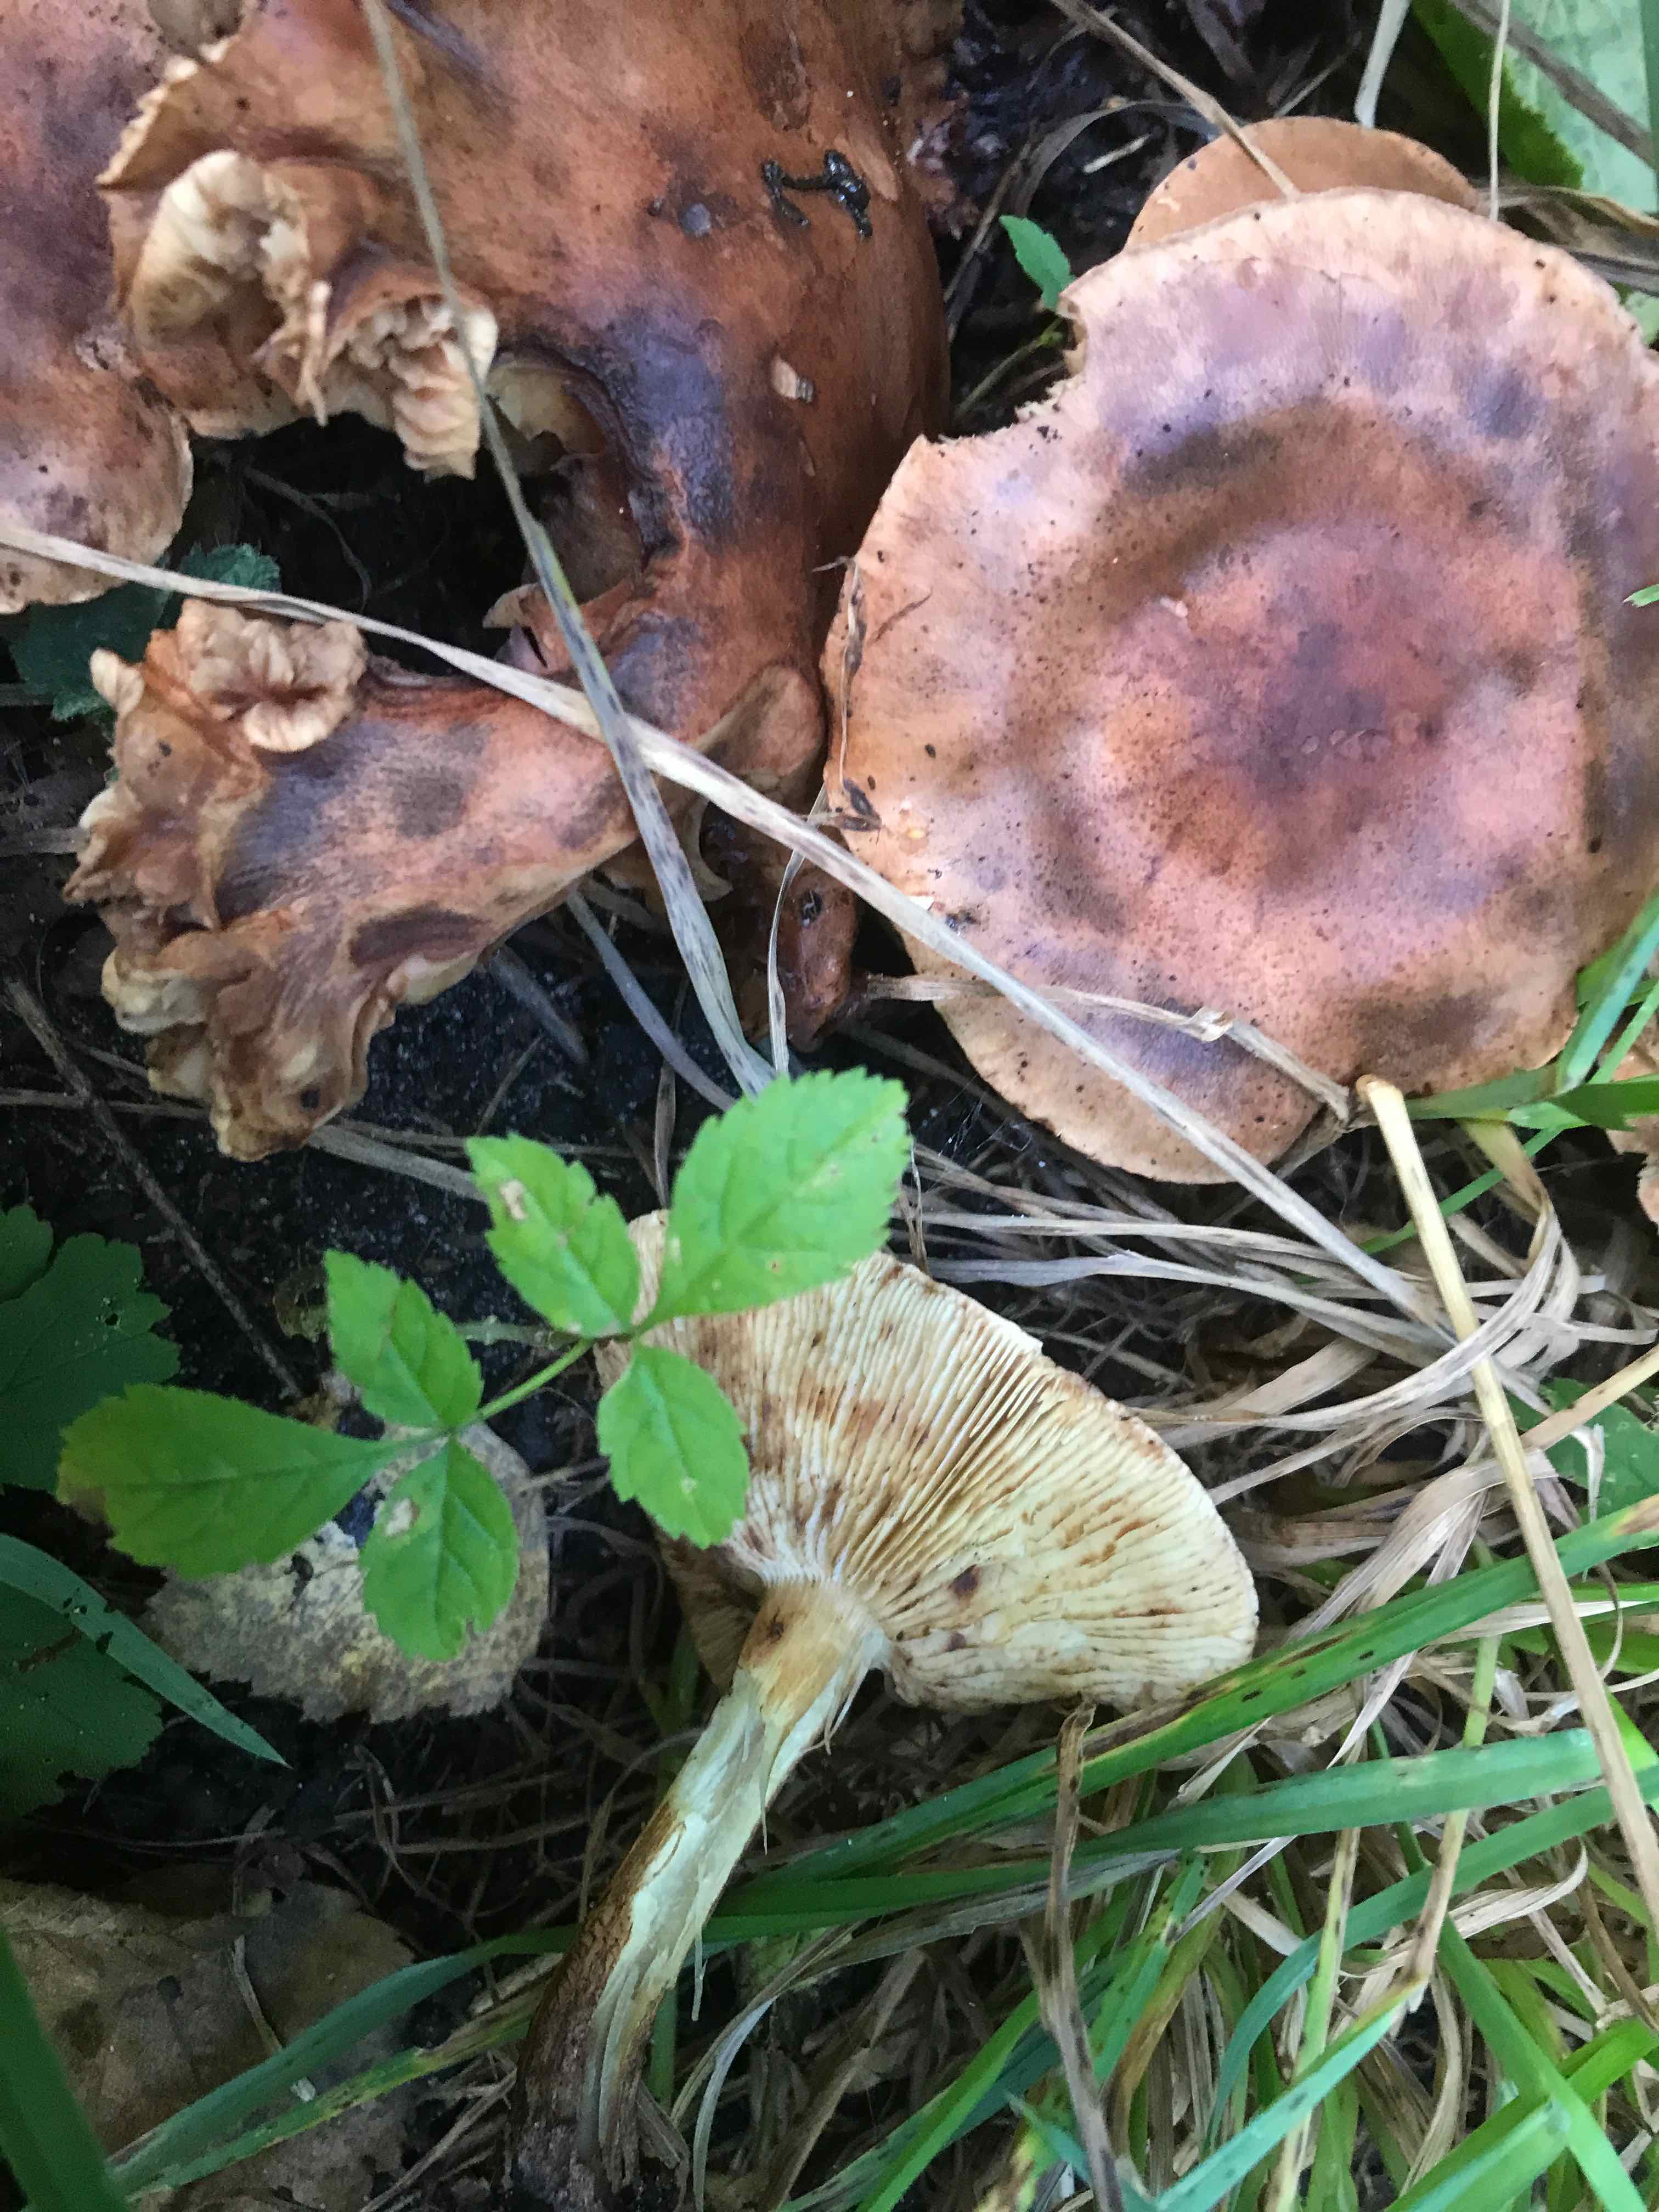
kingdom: Fungi
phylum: Basidiomycota
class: Agaricomycetes
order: Agaricales
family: Tricholomataceae
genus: Tricholoma
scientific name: Tricholoma fulvum
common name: birke-ridderhat
